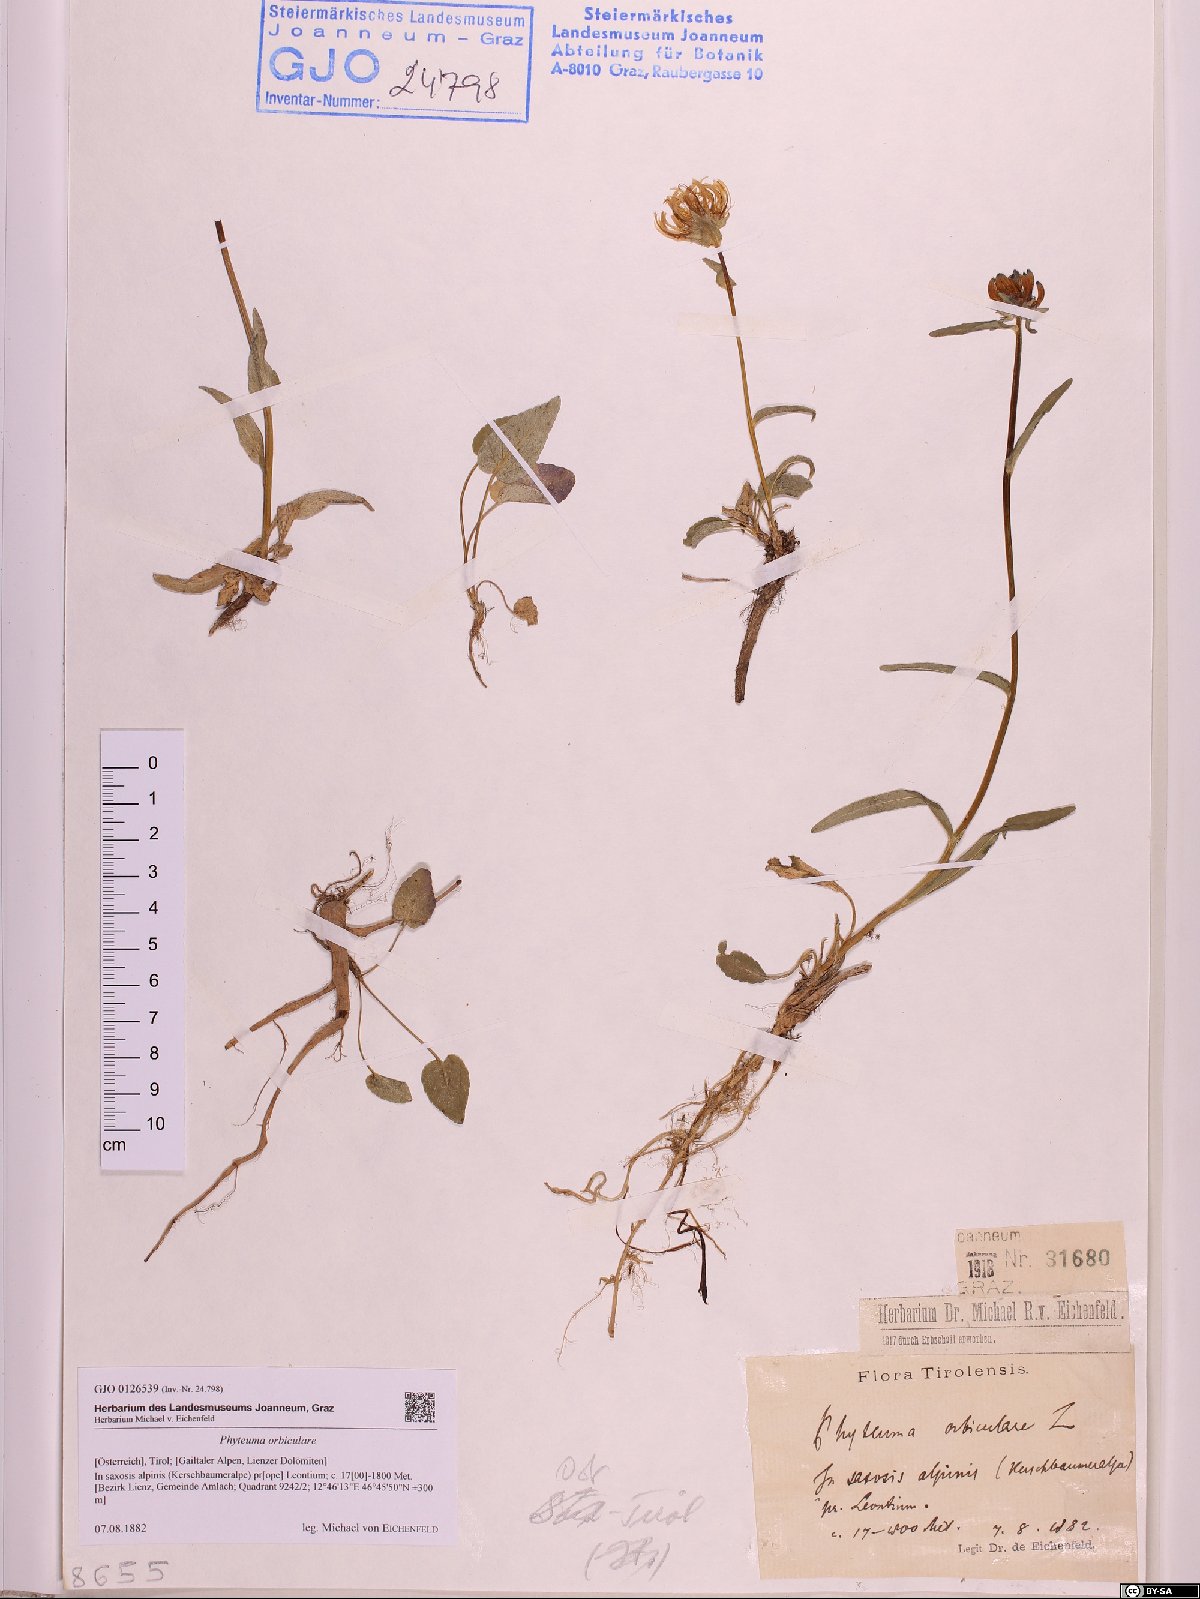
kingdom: Plantae
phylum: Tracheophyta
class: Magnoliopsida
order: Asterales
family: Campanulaceae
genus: Phyteuma
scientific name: Phyteuma orbiculare
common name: Round-headed rampion
